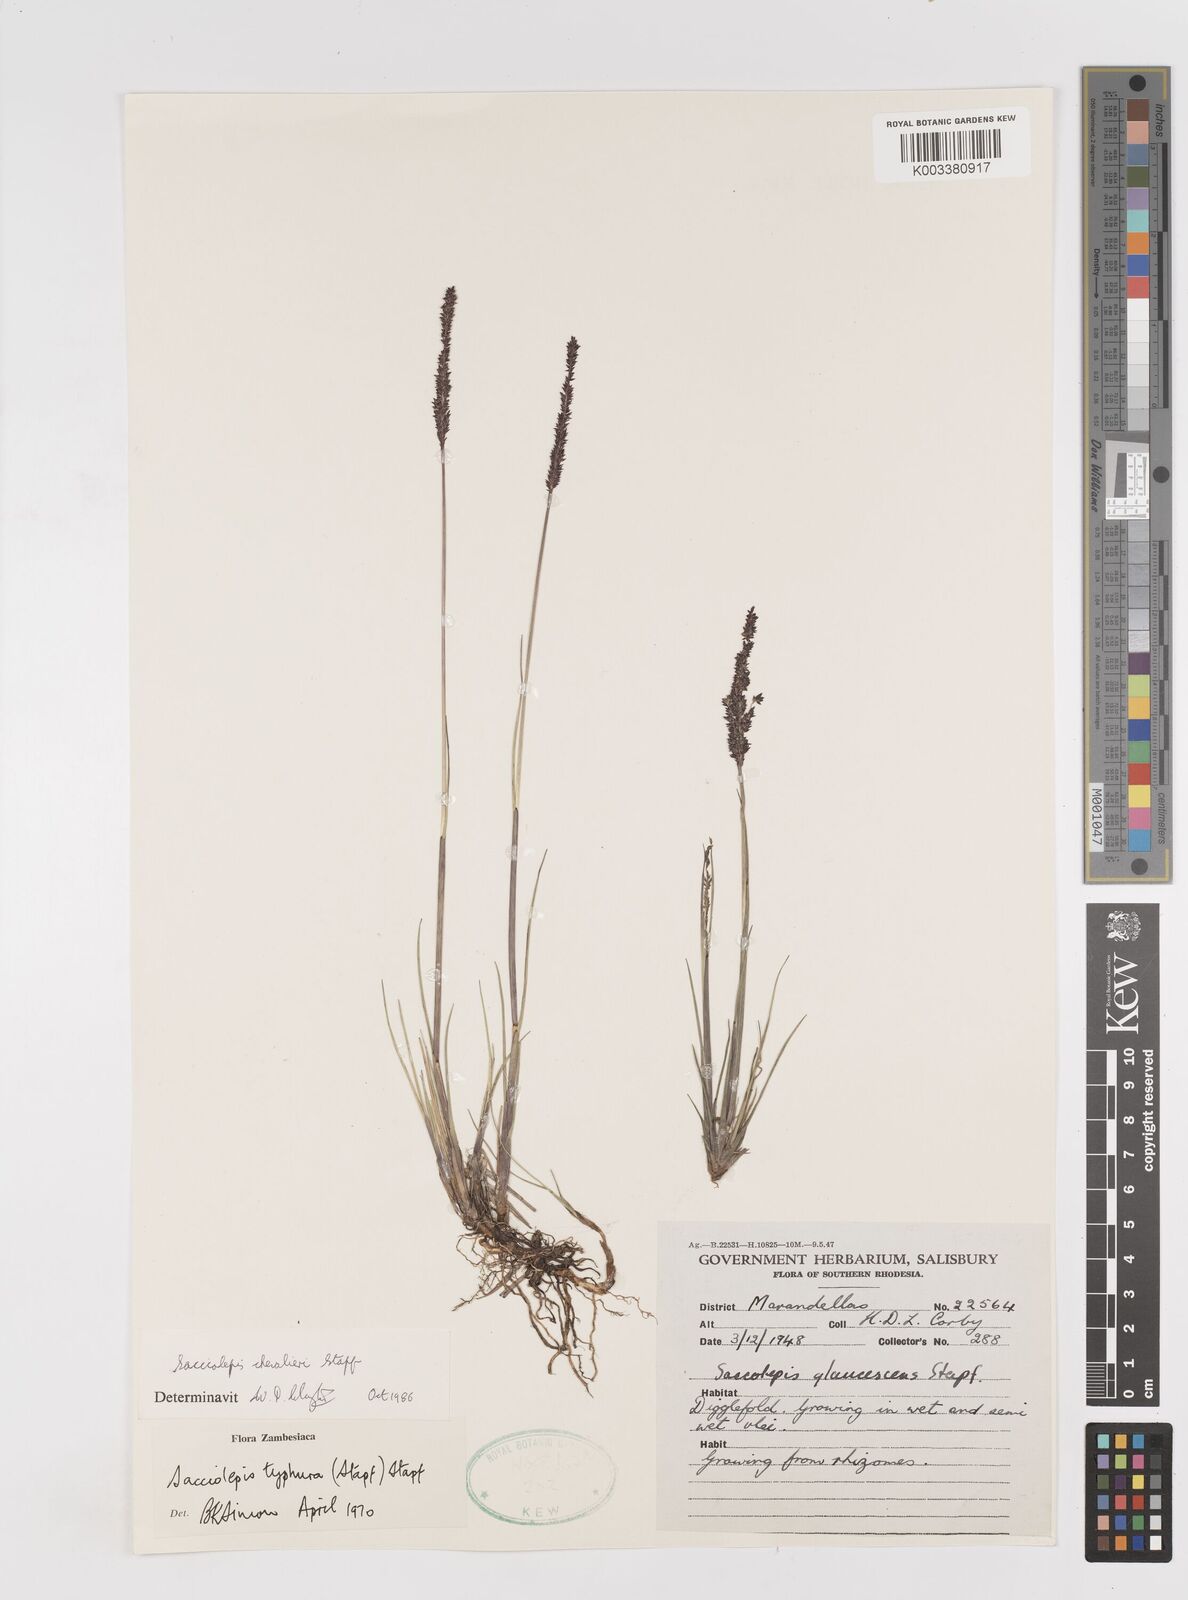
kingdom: Plantae
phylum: Tracheophyta
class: Liliopsida
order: Poales
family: Poaceae
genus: Sacciolepis
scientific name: Sacciolepis chevalieri
